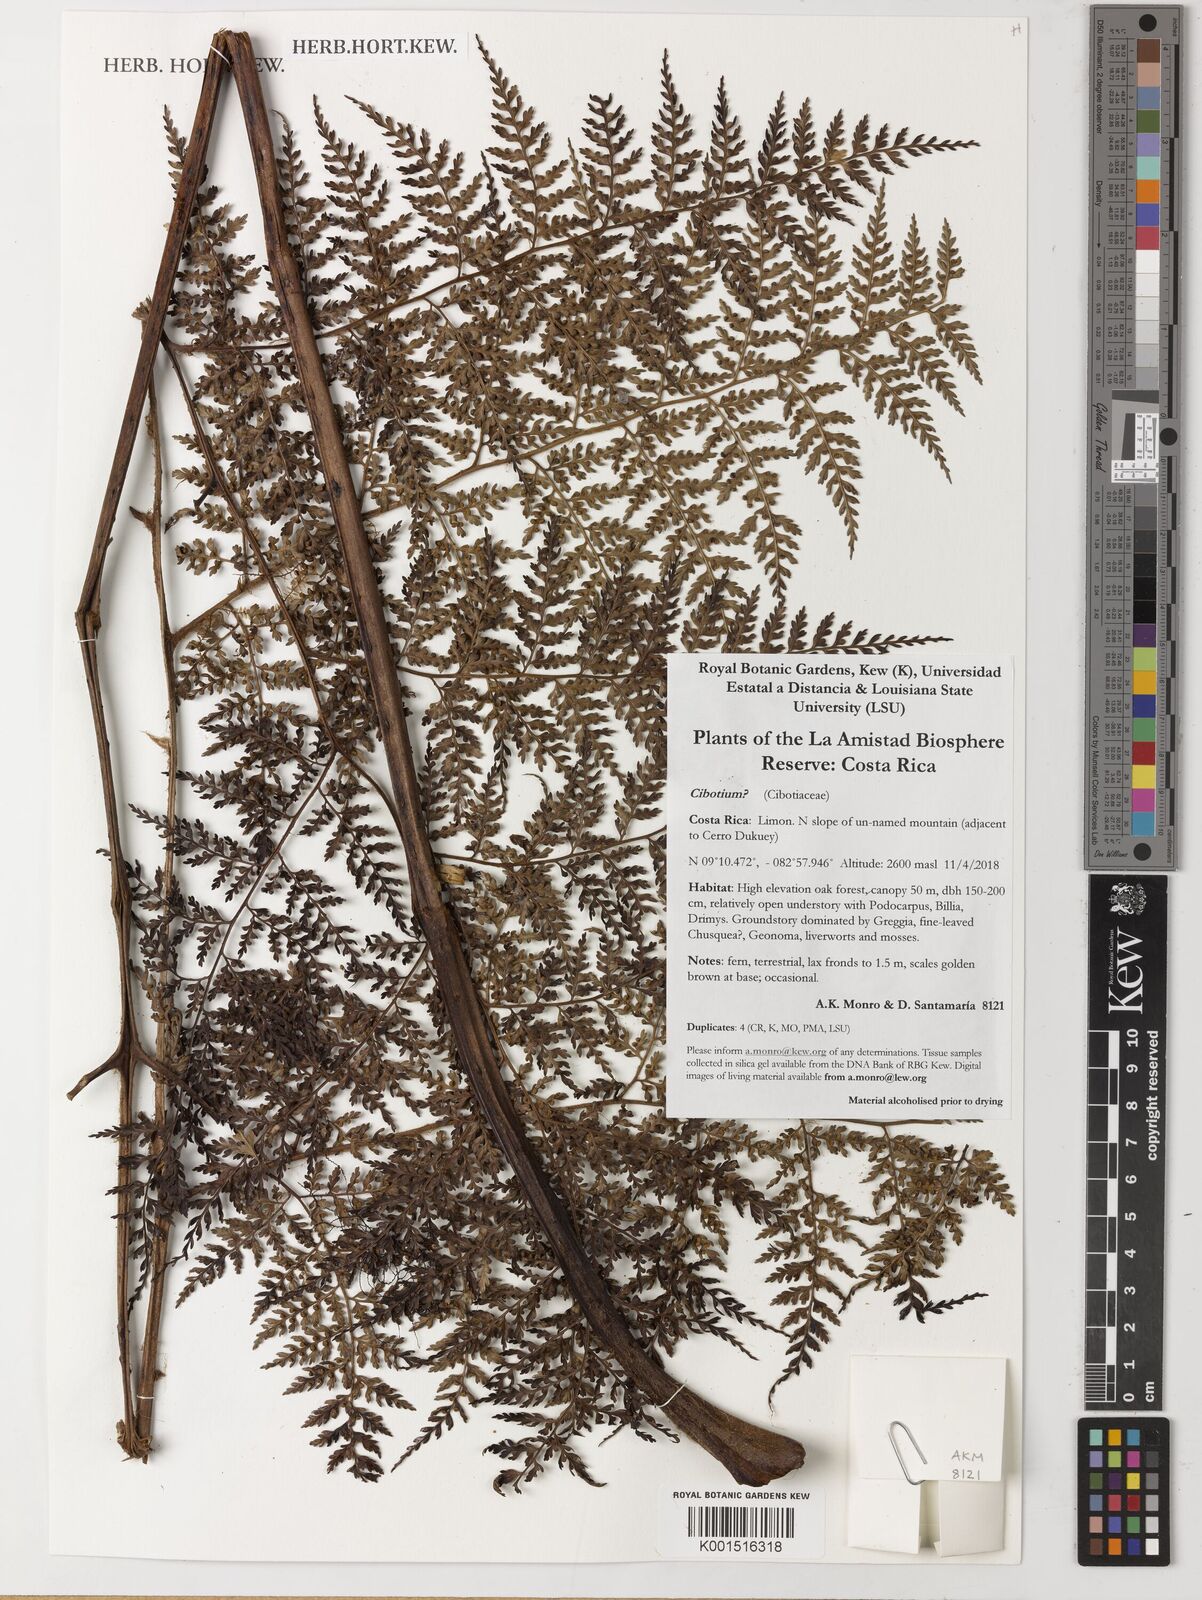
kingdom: Plantae
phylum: Tracheophyta
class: Polypodiopsida
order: Cyatheales
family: Cibotiaceae
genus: Cibotium
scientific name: Cibotium
